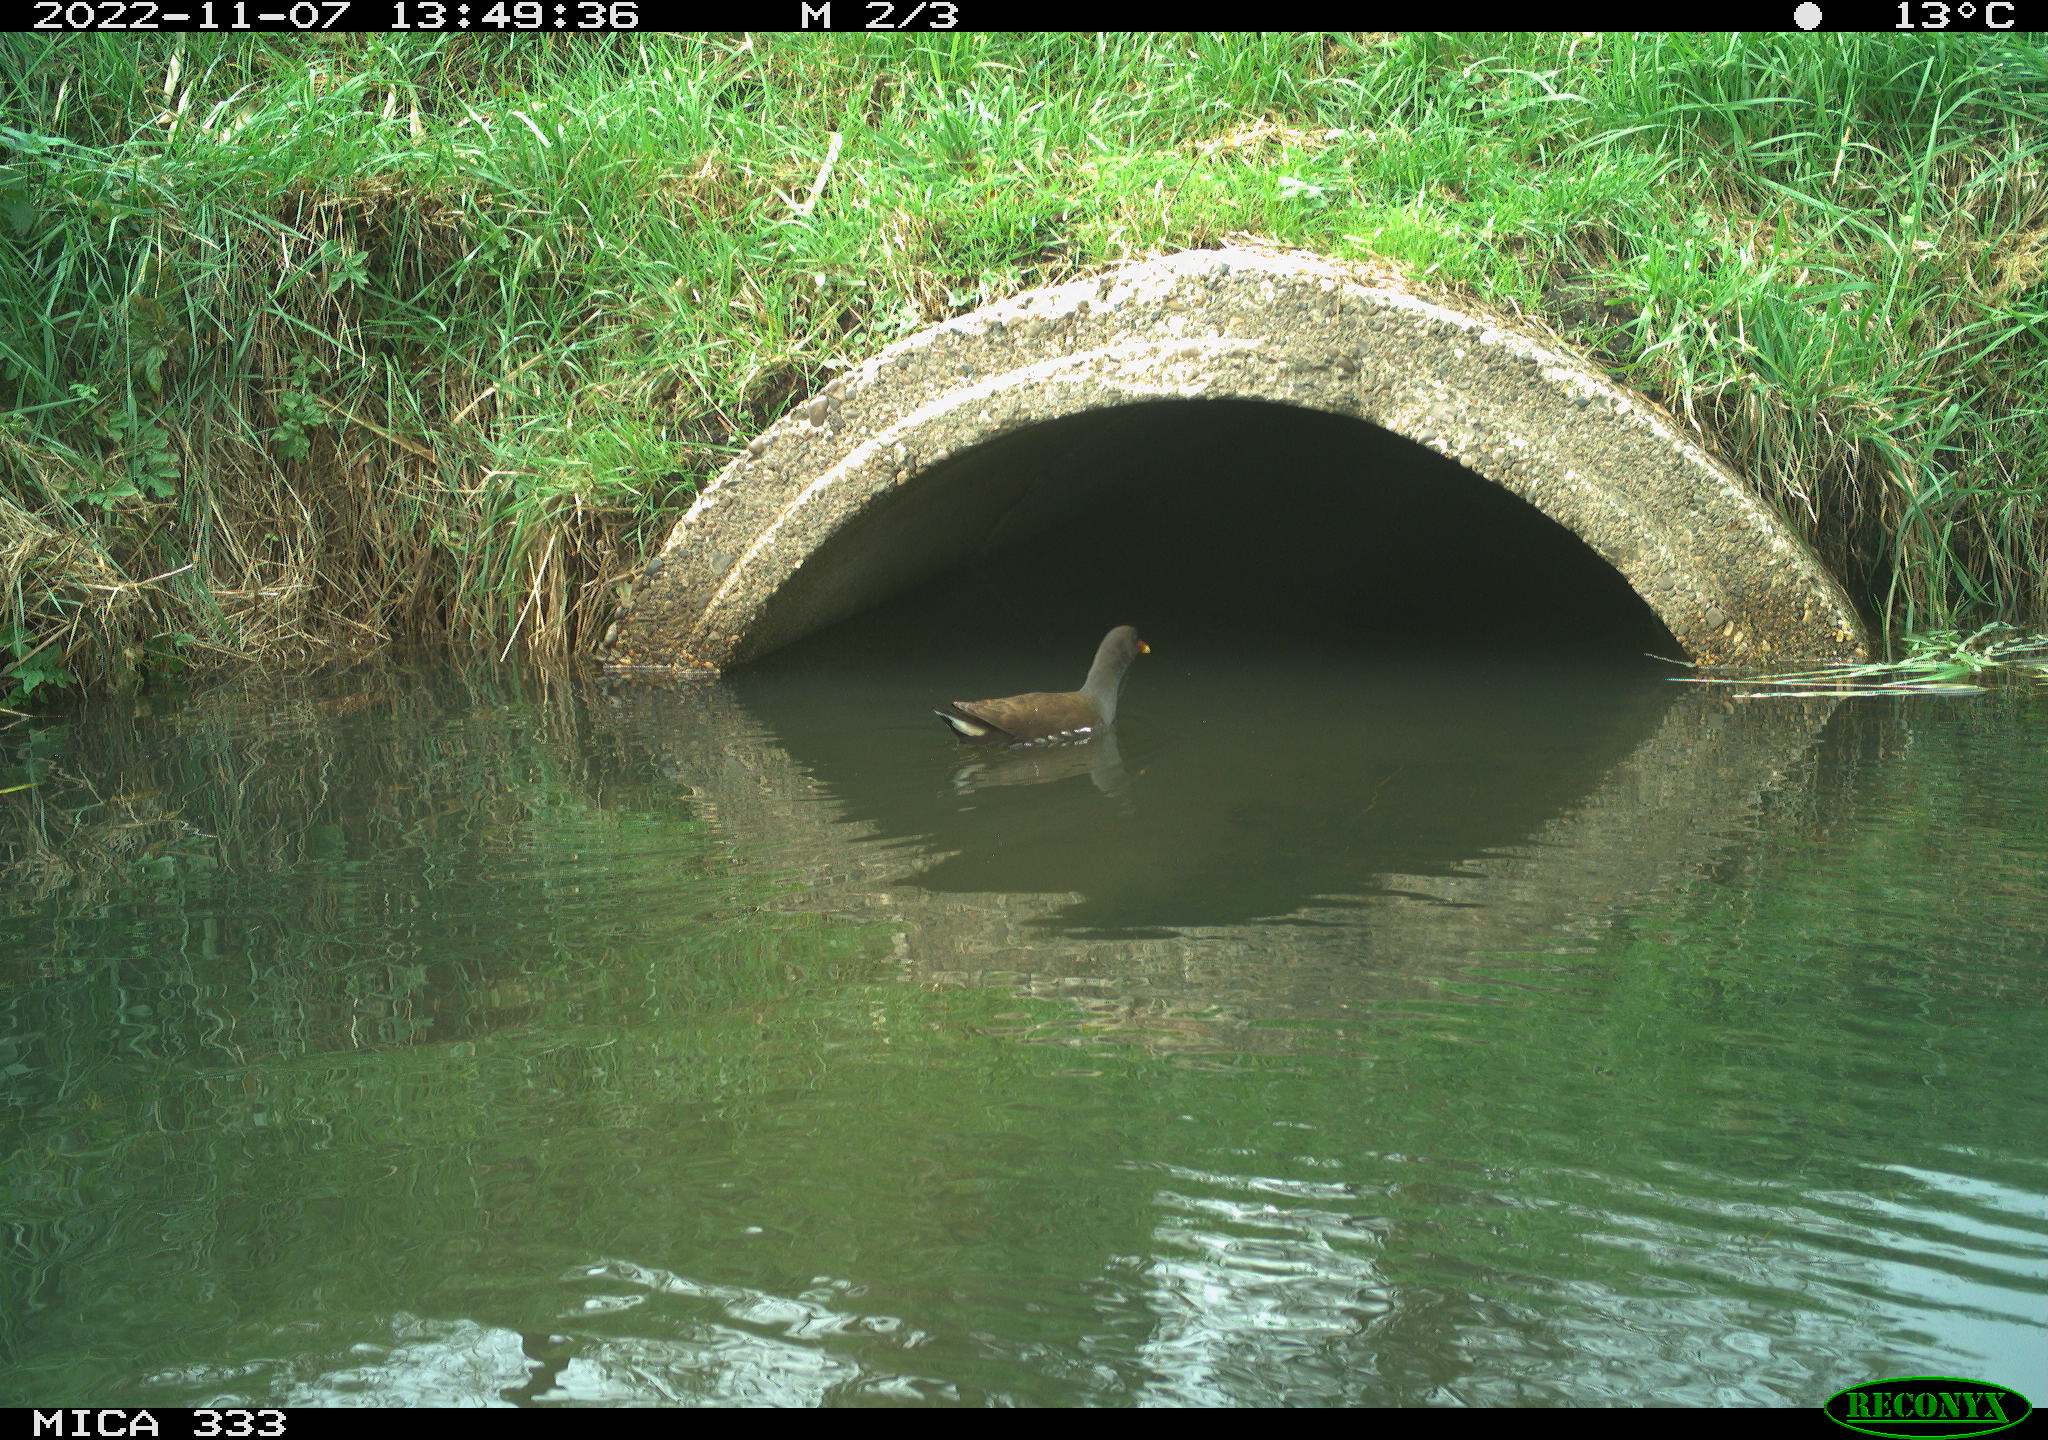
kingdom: Animalia
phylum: Chordata
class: Aves
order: Gruiformes
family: Rallidae
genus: Gallinula
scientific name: Gallinula chloropus
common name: Common moorhen
